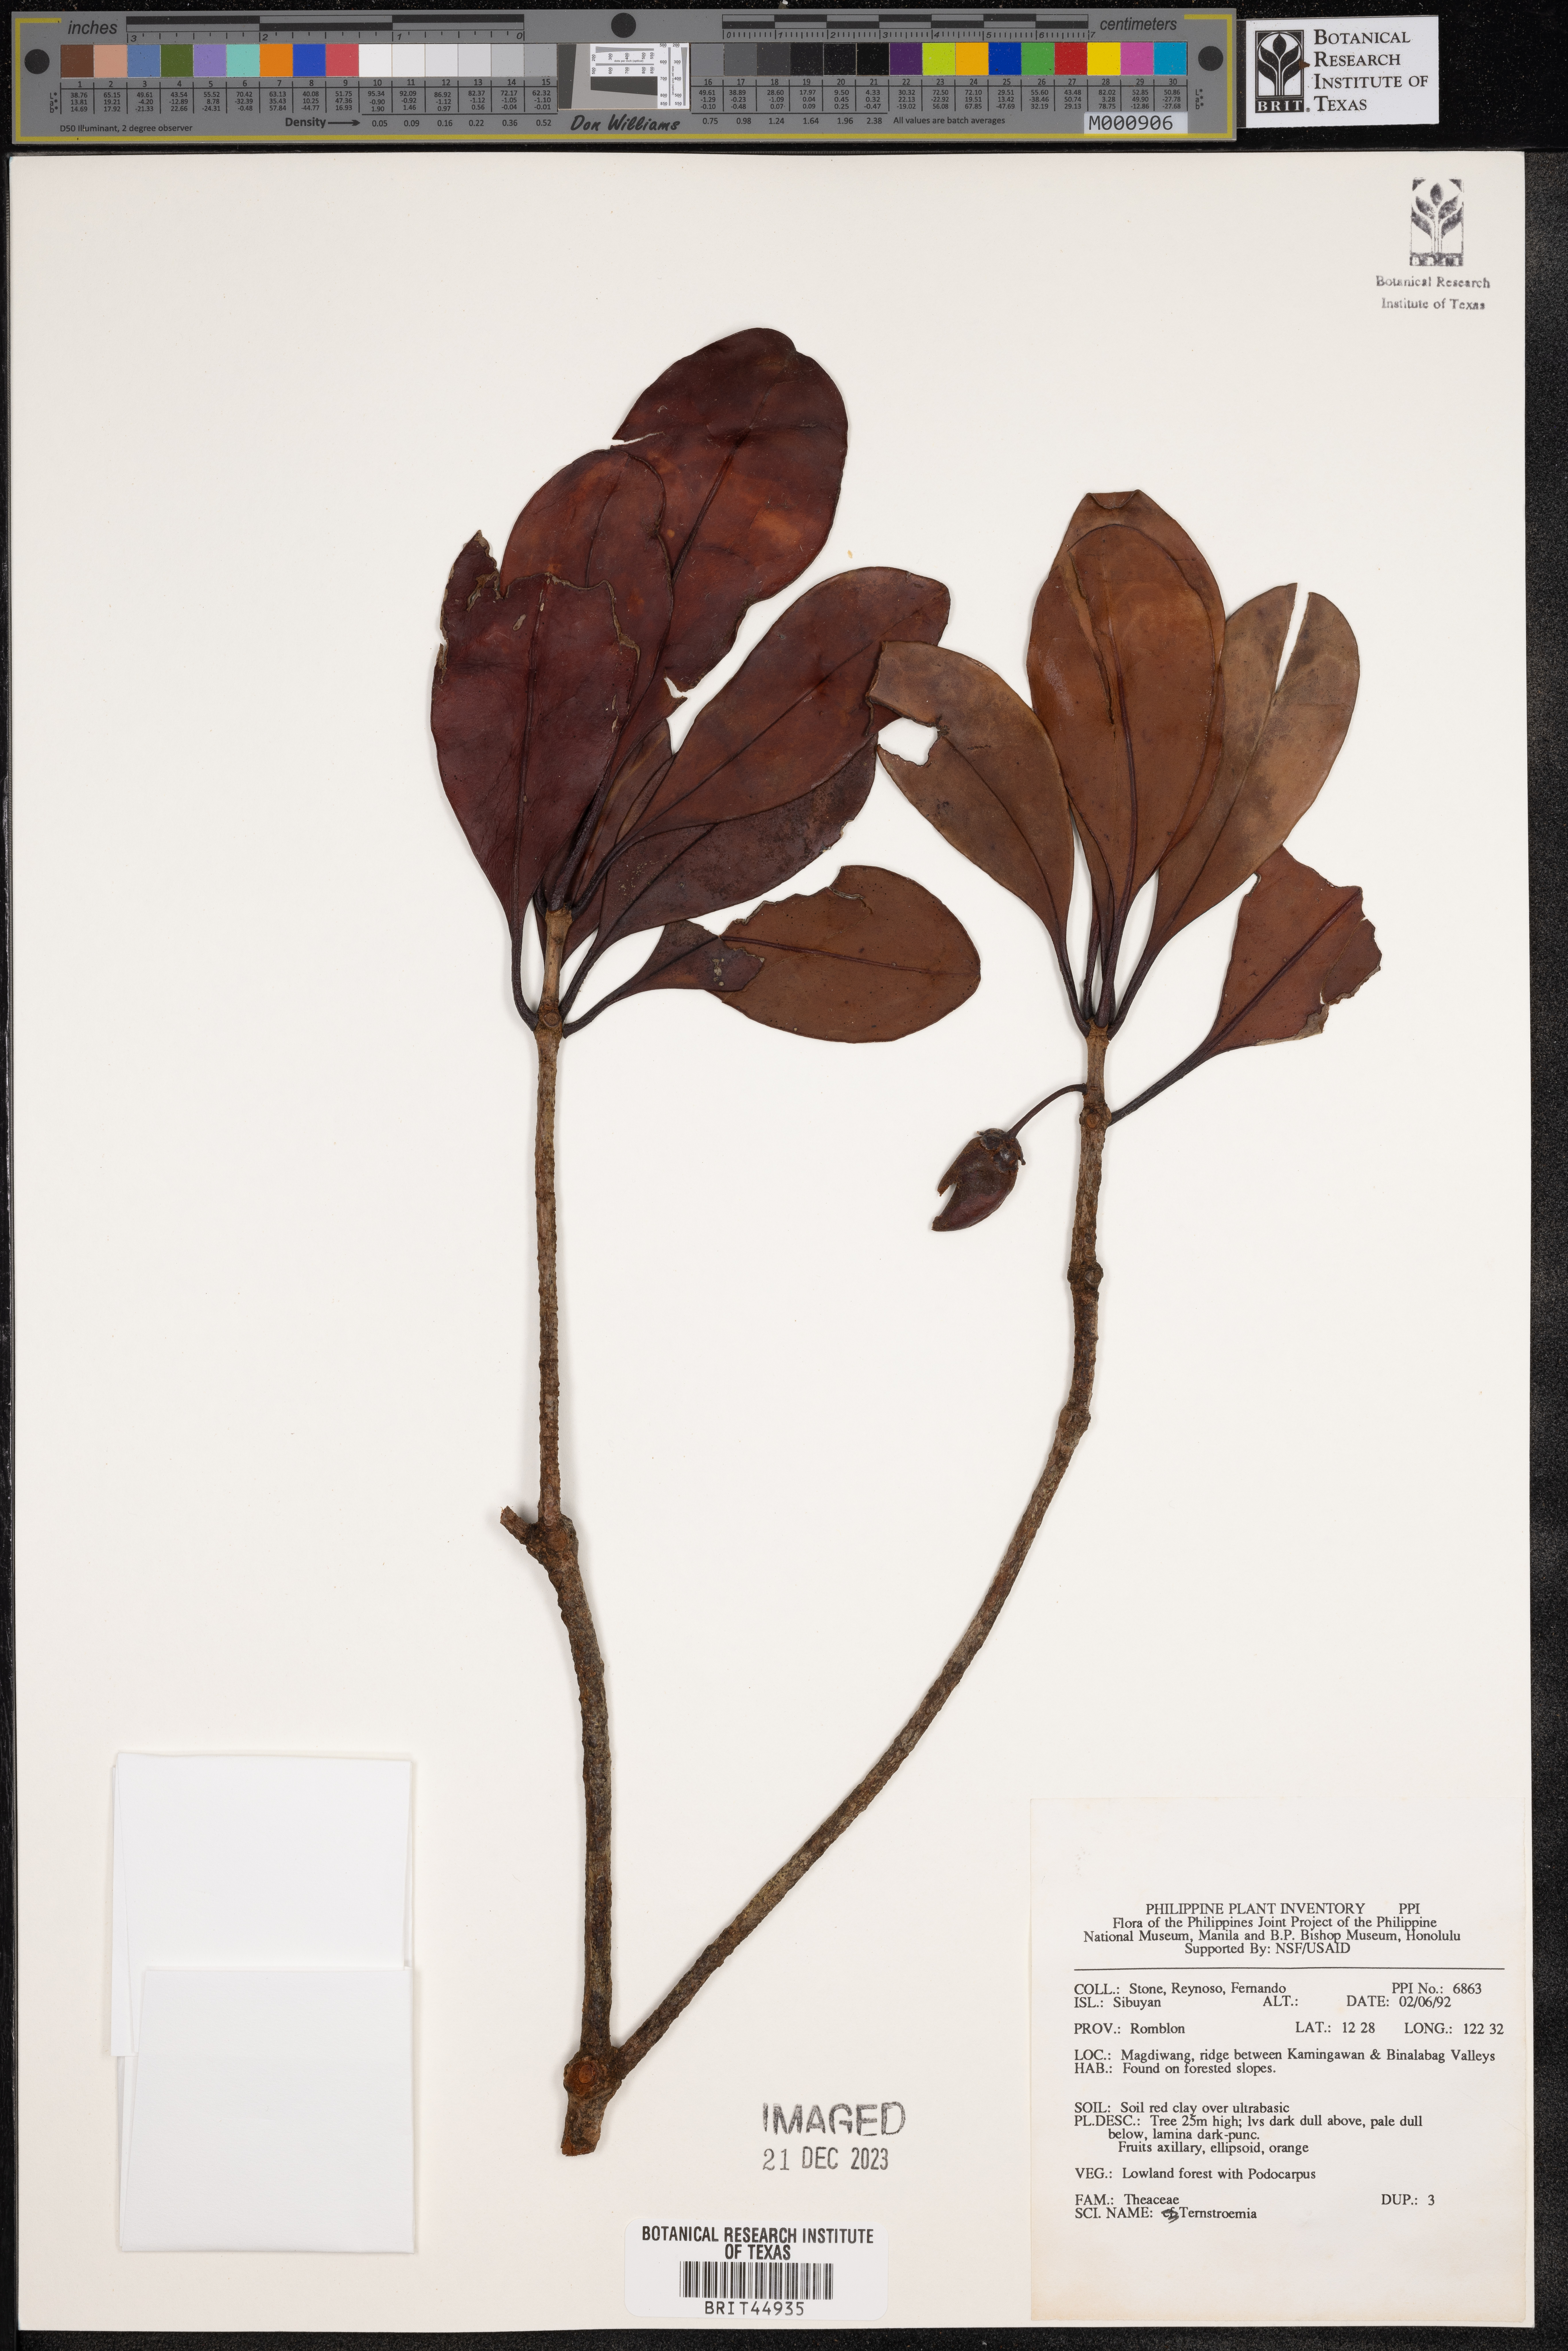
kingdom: Plantae
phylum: Tracheophyta
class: Magnoliopsida
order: Ericales
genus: Ternstroemia
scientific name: Ternstroemia
